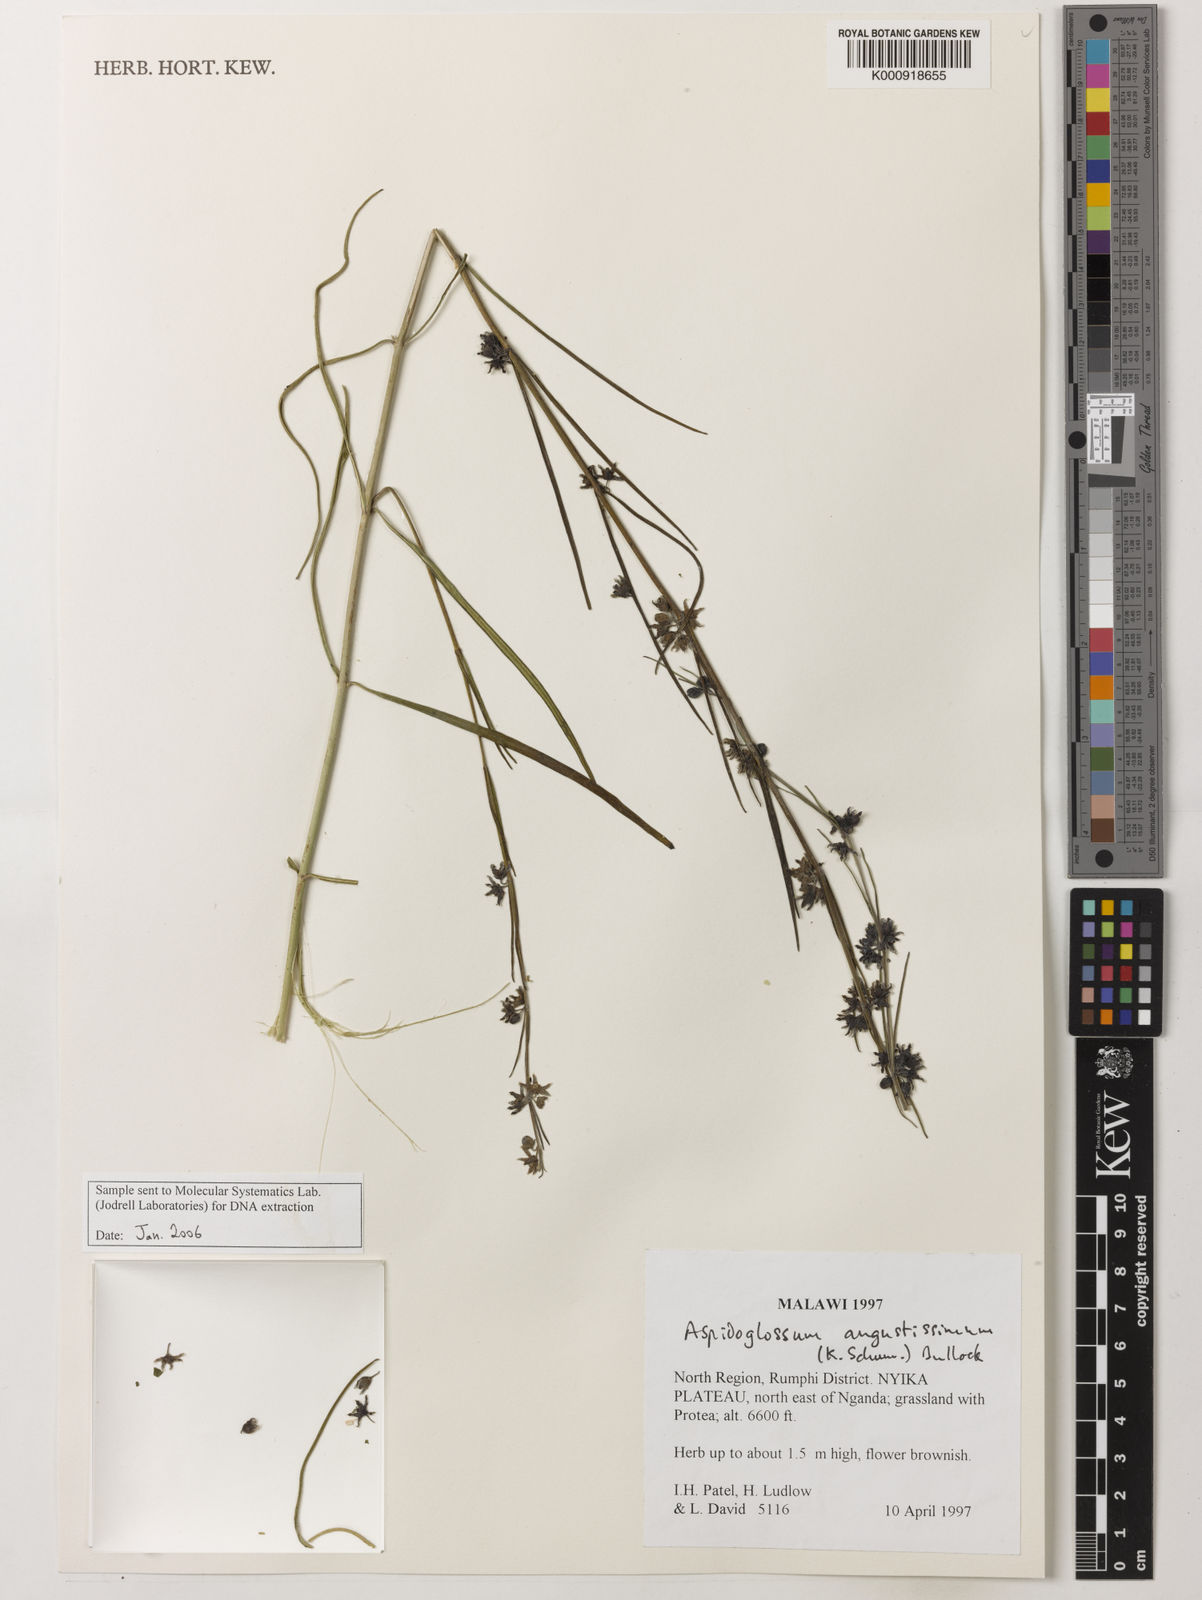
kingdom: Plantae
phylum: Tracheophyta
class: Magnoliopsida
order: Gentianales
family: Apocynaceae
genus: Aspidoglossum
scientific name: Aspidoglossum angustissimum
